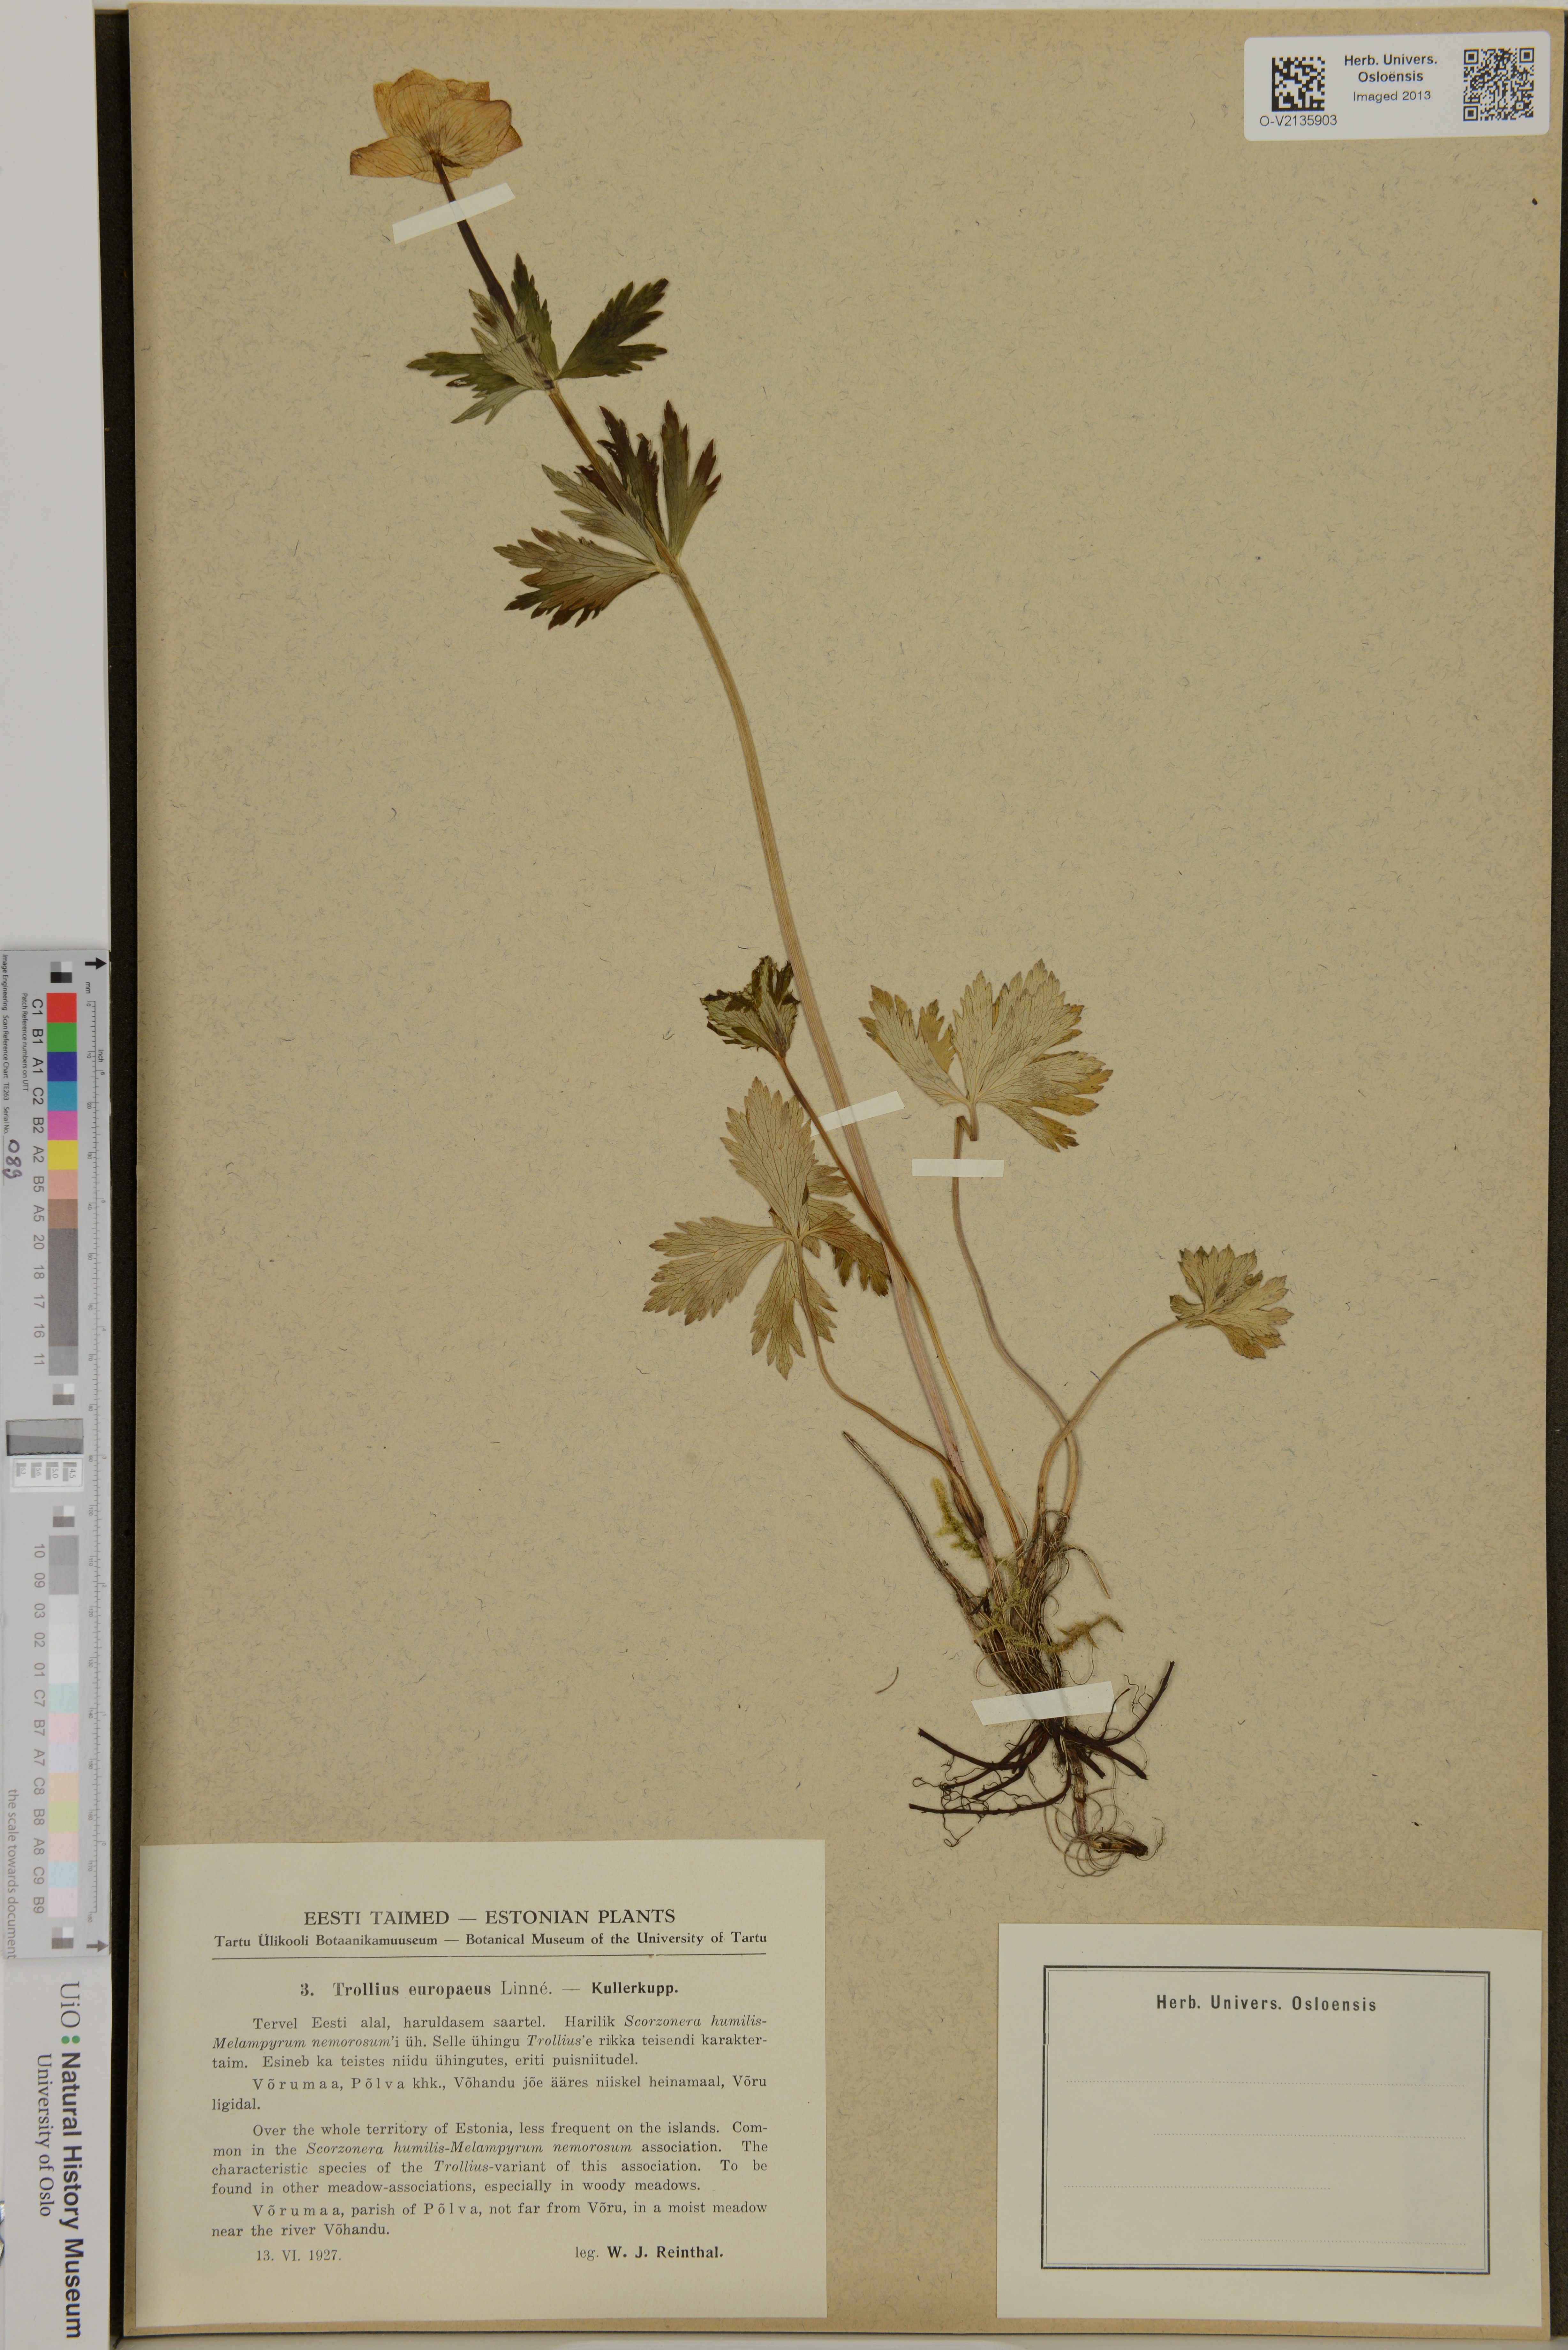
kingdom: Plantae
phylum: Tracheophyta
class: Magnoliopsida
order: Ranunculales
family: Ranunculaceae
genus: Trollius
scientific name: Trollius europaeus
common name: European globeflower
